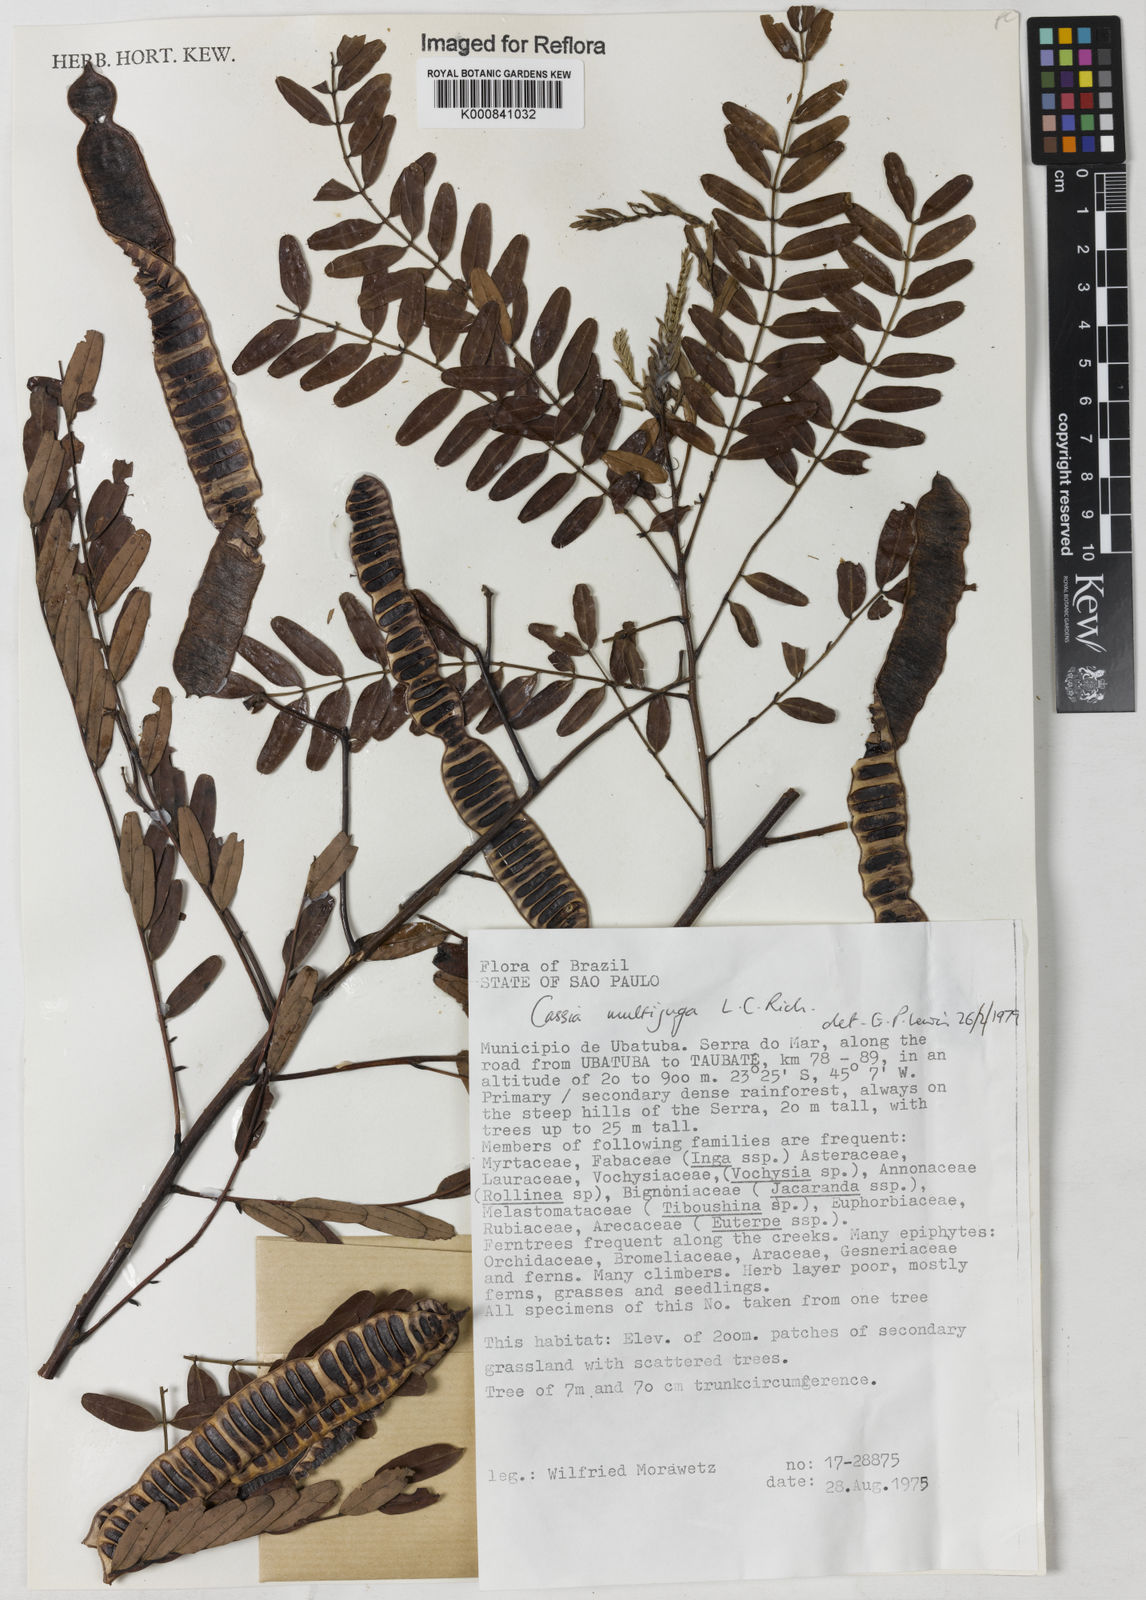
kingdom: Plantae
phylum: Tracheophyta
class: Magnoliopsida
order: Fabales
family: Fabaceae
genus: Senna
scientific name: Senna multijuga
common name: False sicklepod
